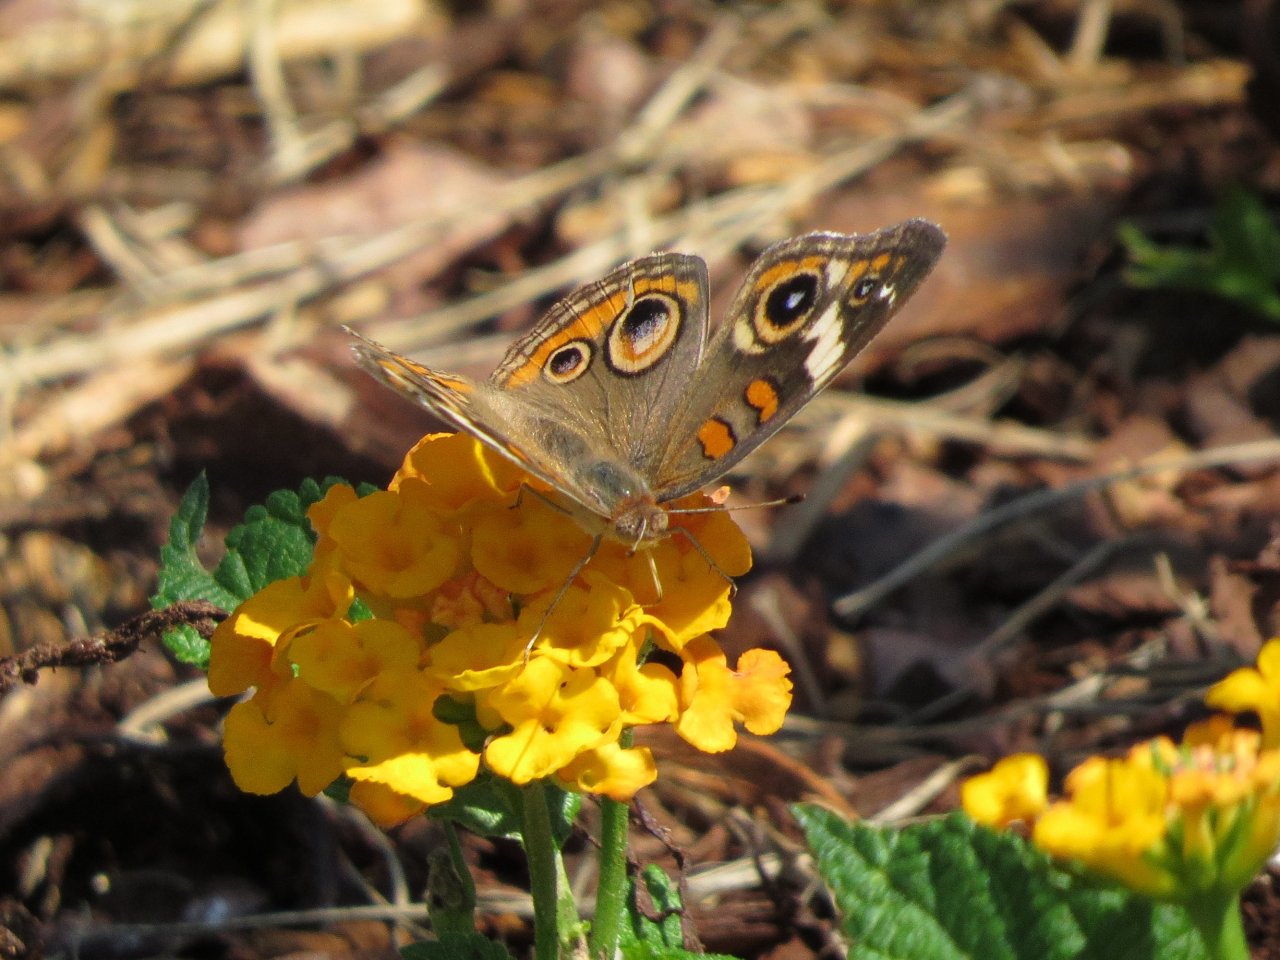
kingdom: Animalia
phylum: Arthropoda
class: Insecta
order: Lepidoptera
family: Nymphalidae
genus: Junonia
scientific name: Junonia coenia
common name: Common Buckeye
